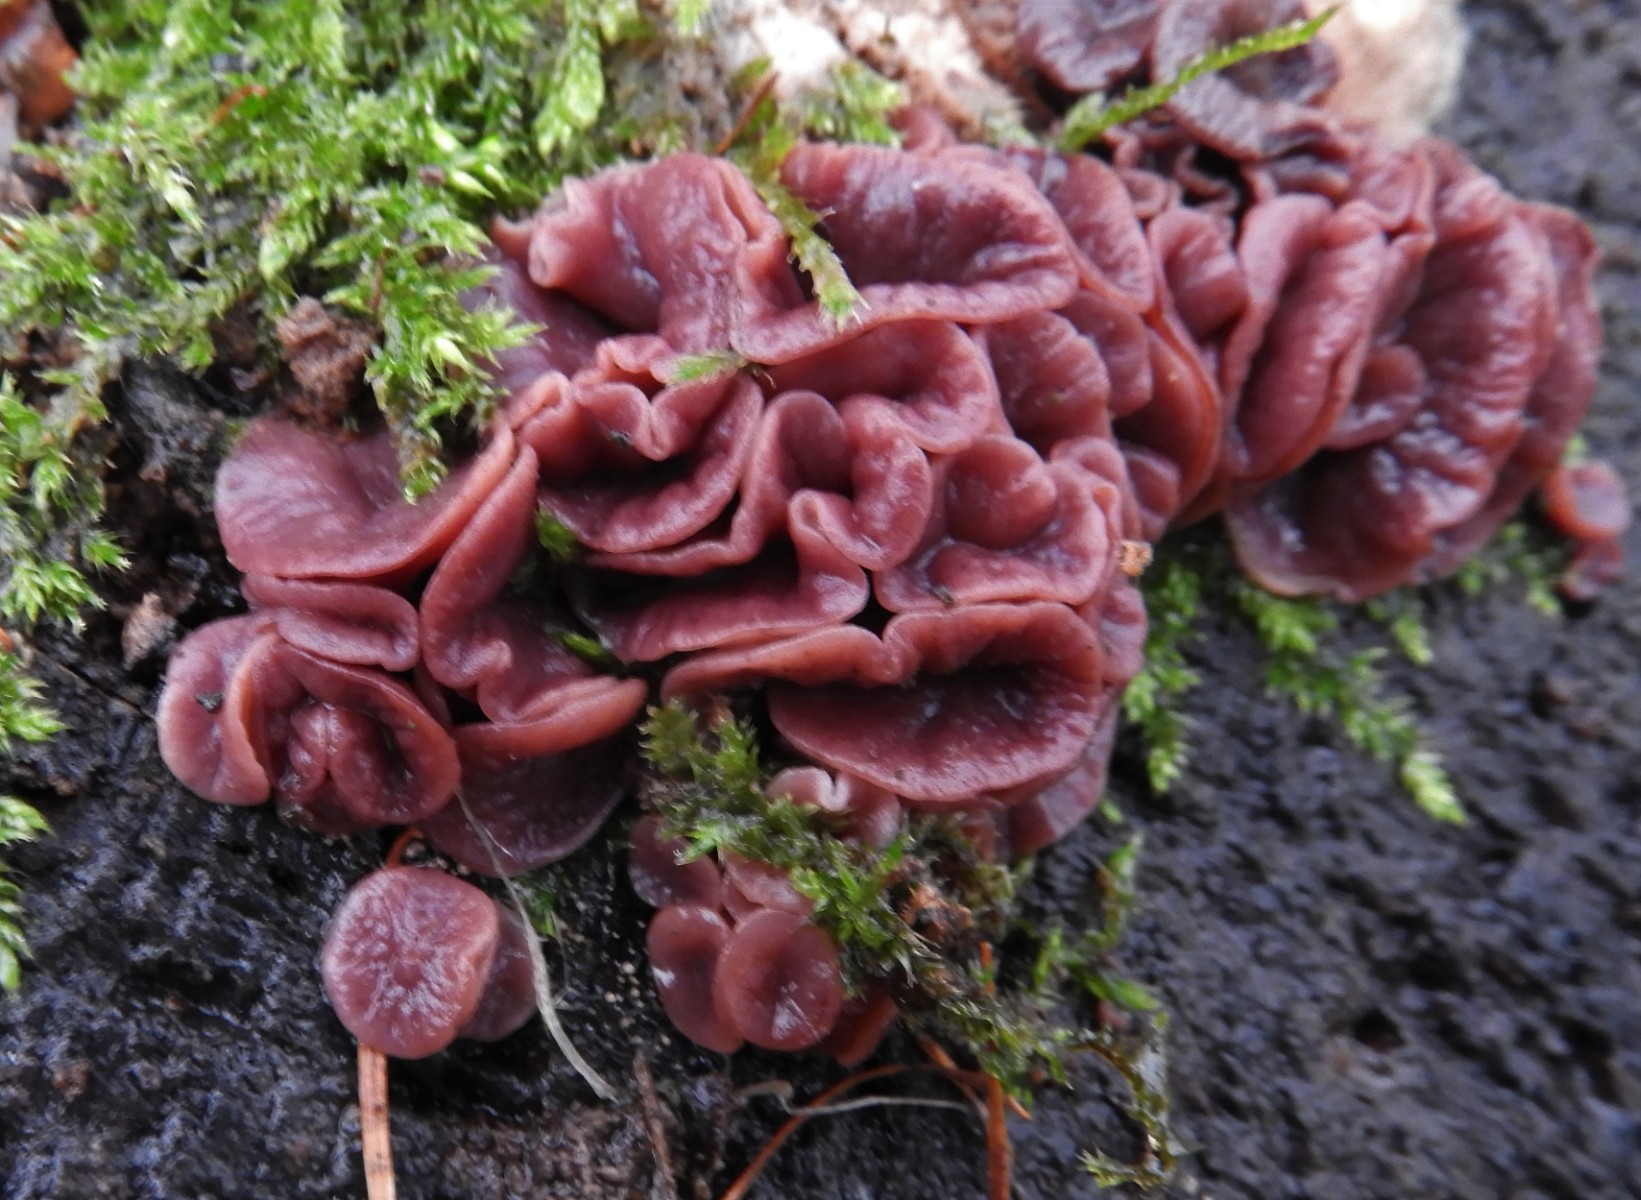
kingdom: Fungi
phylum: Ascomycota
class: Leotiomycetes
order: Helotiales
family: Gelatinodiscaceae
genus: Ascocoryne
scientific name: Ascocoryne cylichnium
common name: stor sejskive
